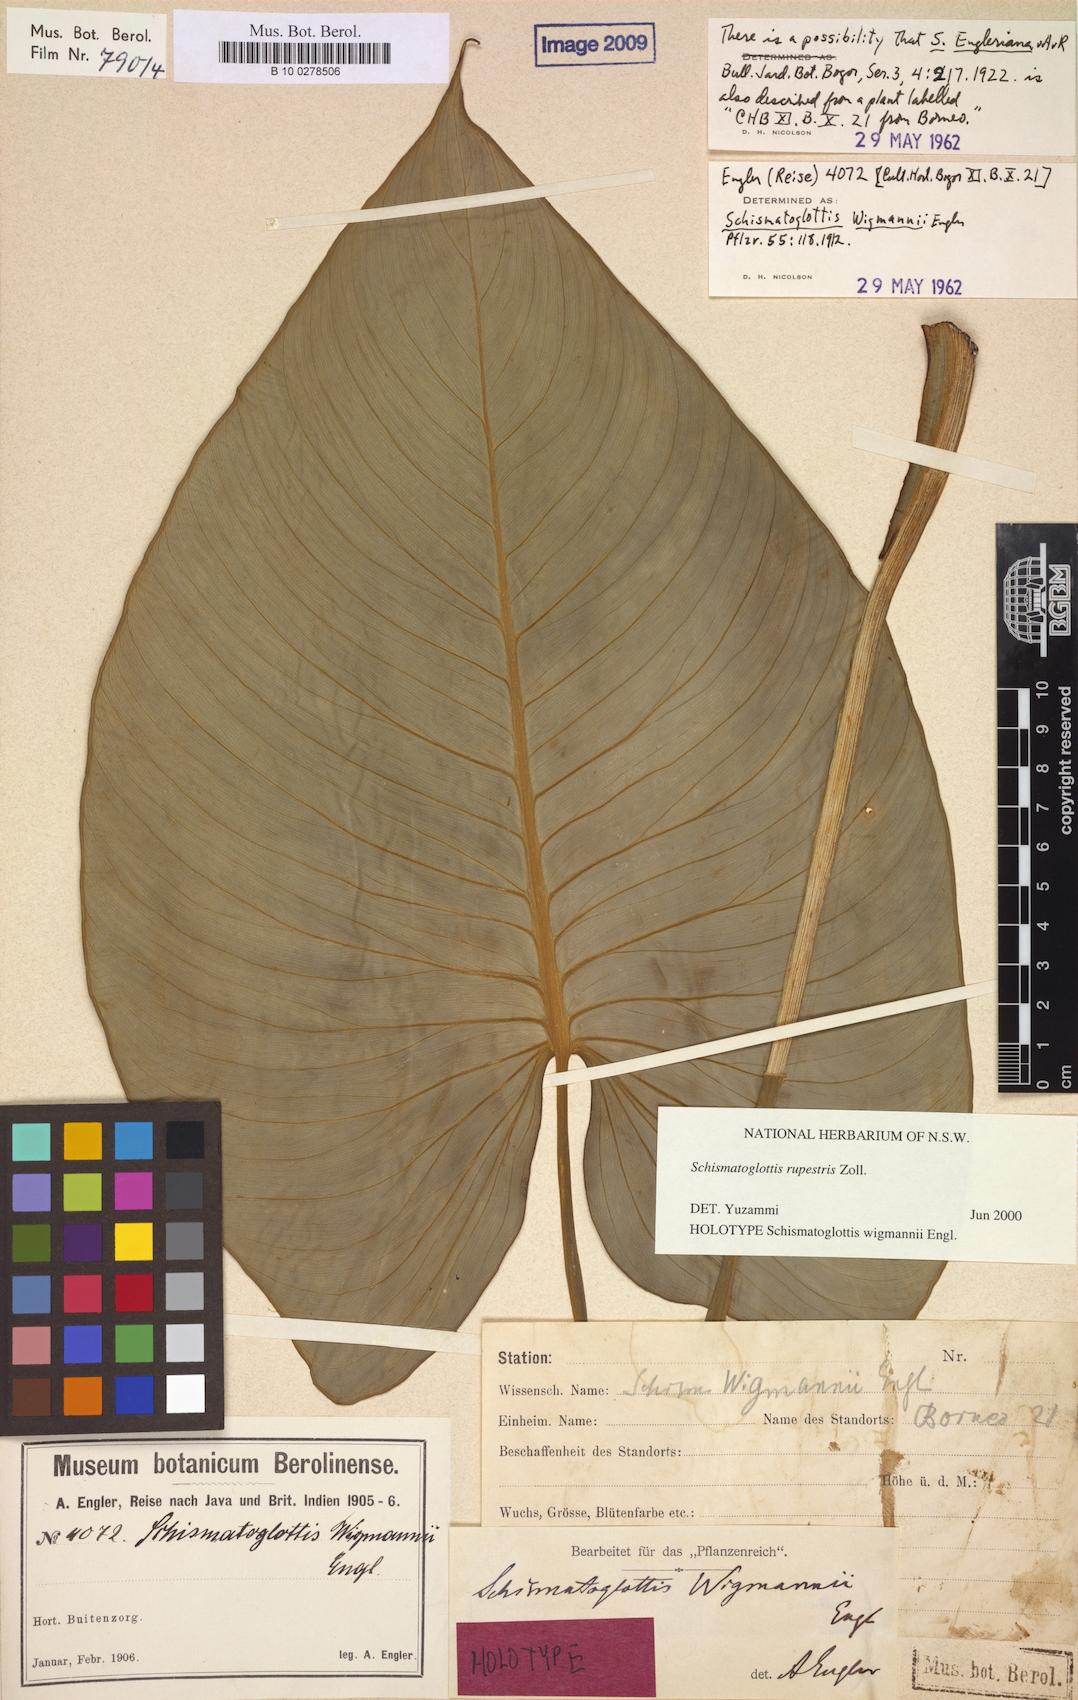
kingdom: Plantae
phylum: Tracheophyta
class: Liliopsida
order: Alismatales
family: Araceae
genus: Apoballis
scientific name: Apoballis rupestris
